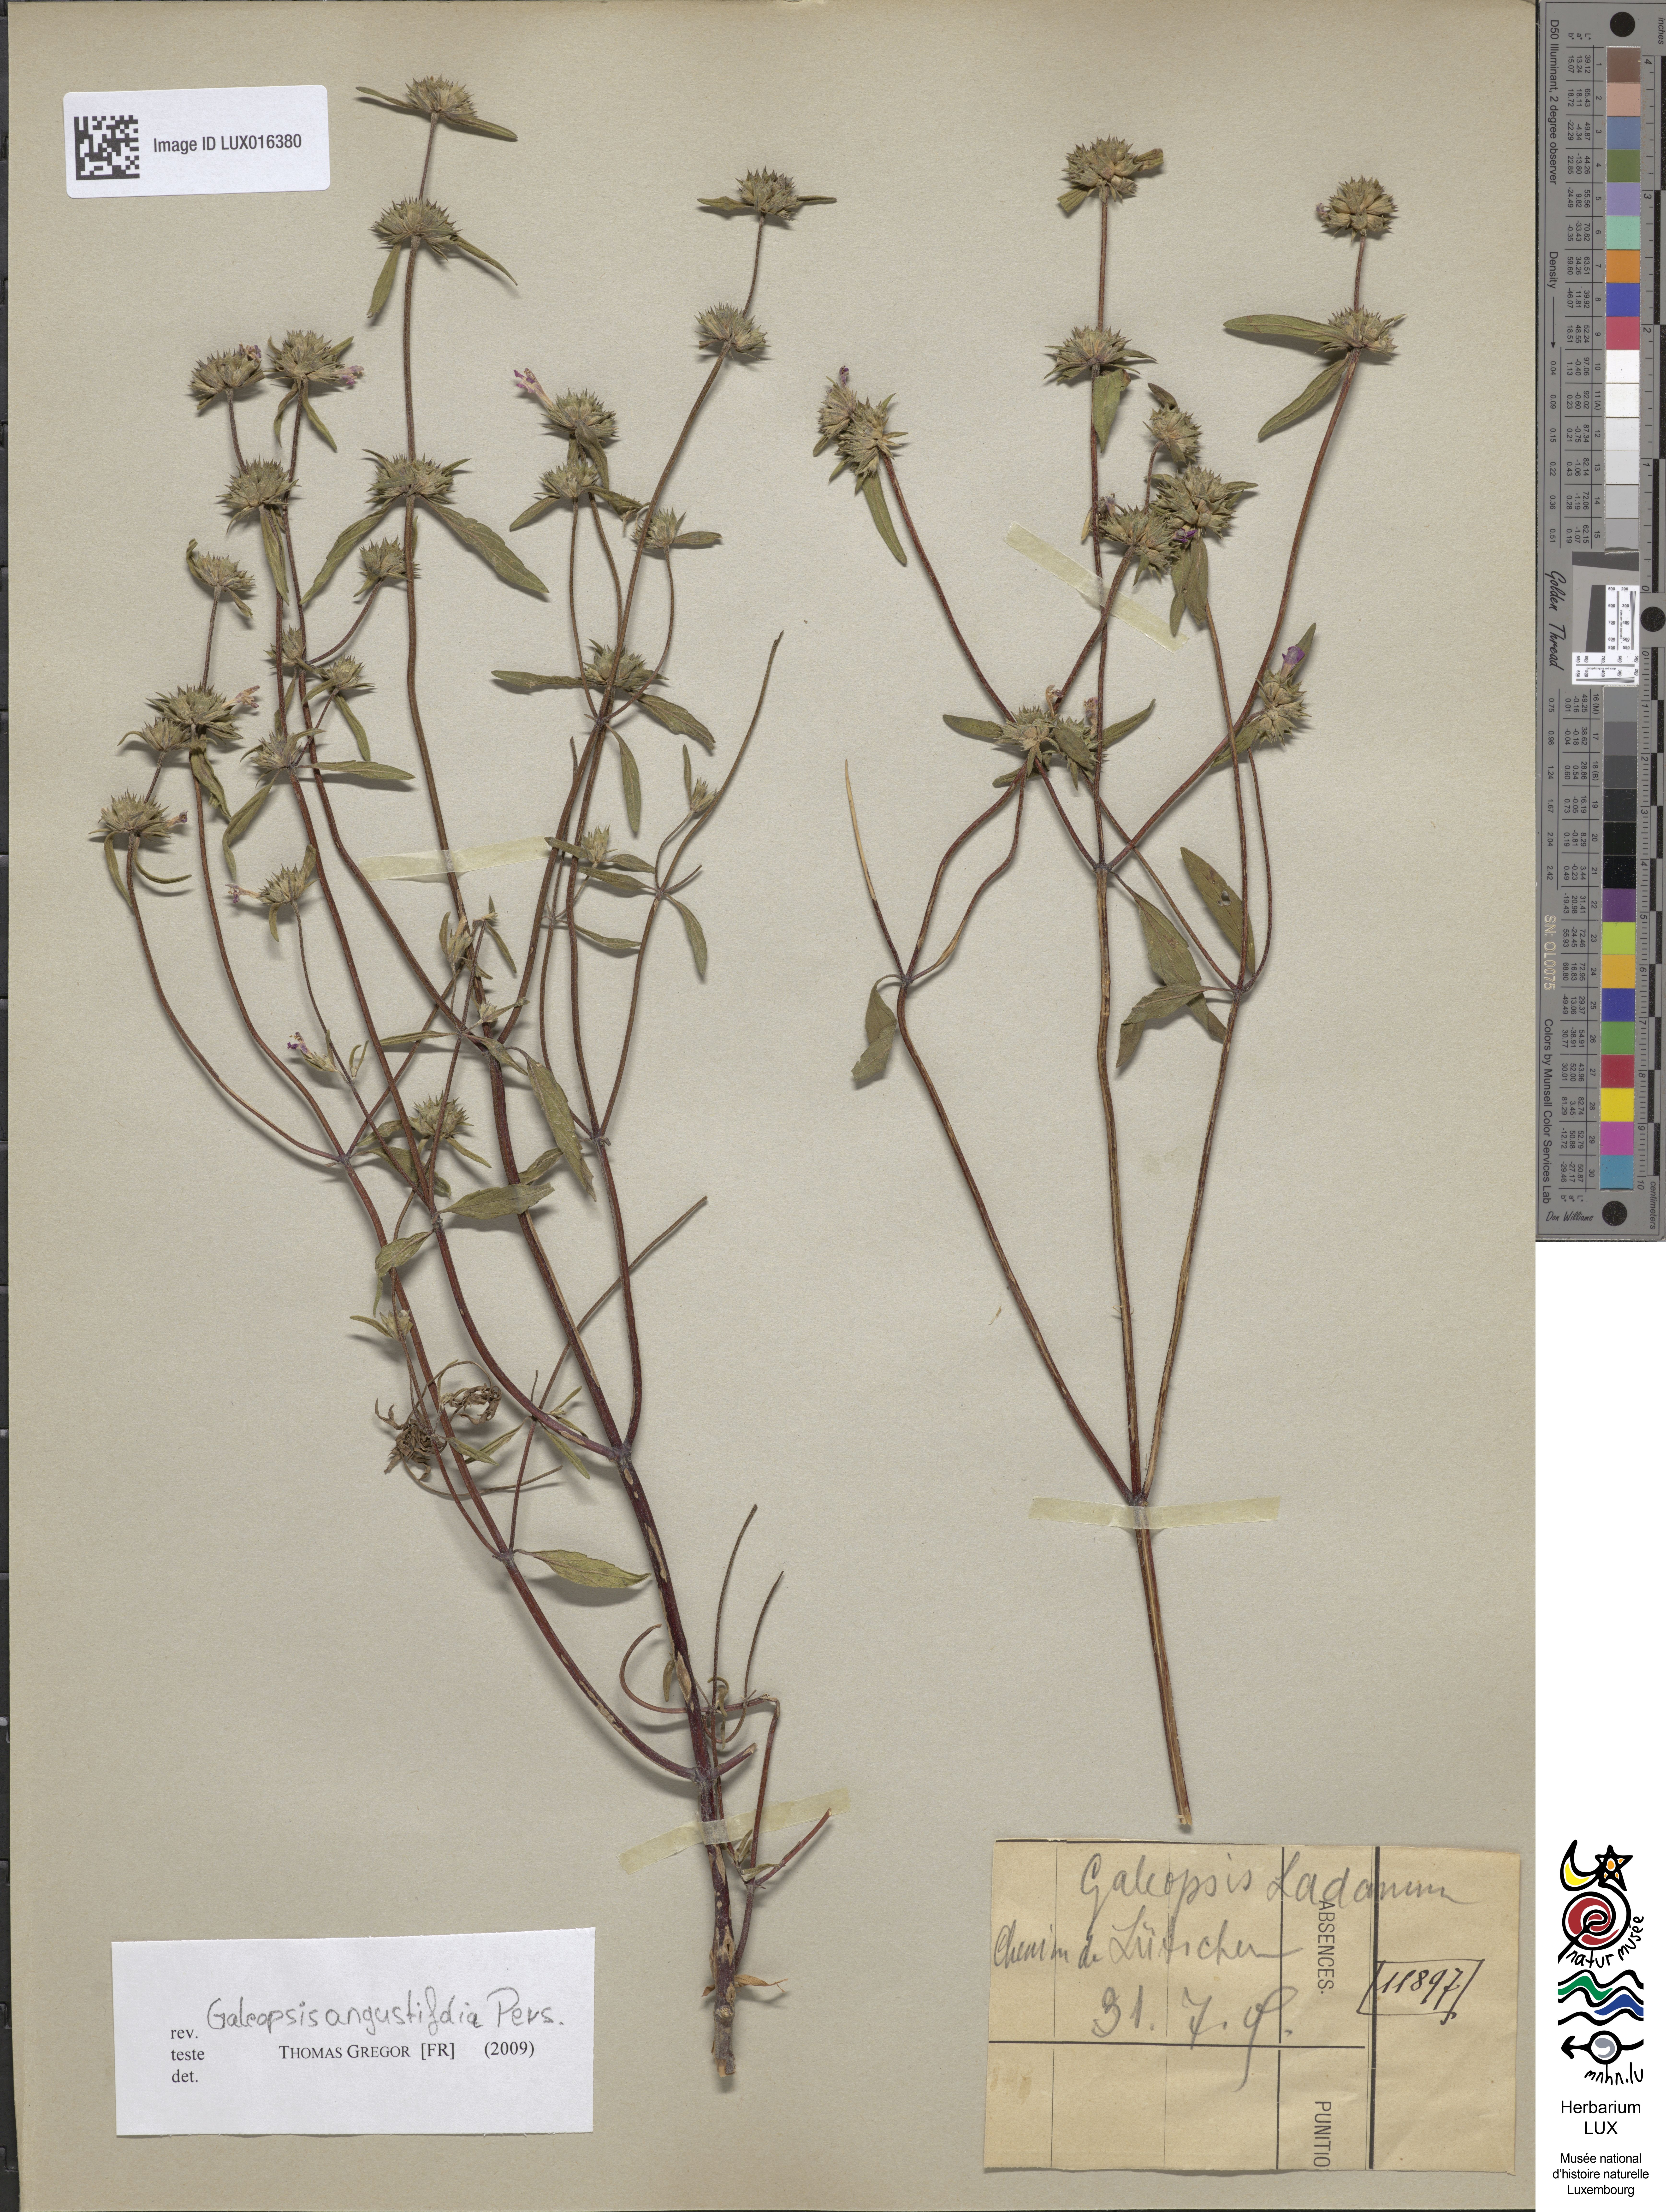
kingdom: Plantae
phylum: Tracheophyta
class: Magnoliopsida
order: Lamiales
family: Lamiaceae
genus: Galeopsis
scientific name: Galeopsis angustifolia
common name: Red hemp-nettle
